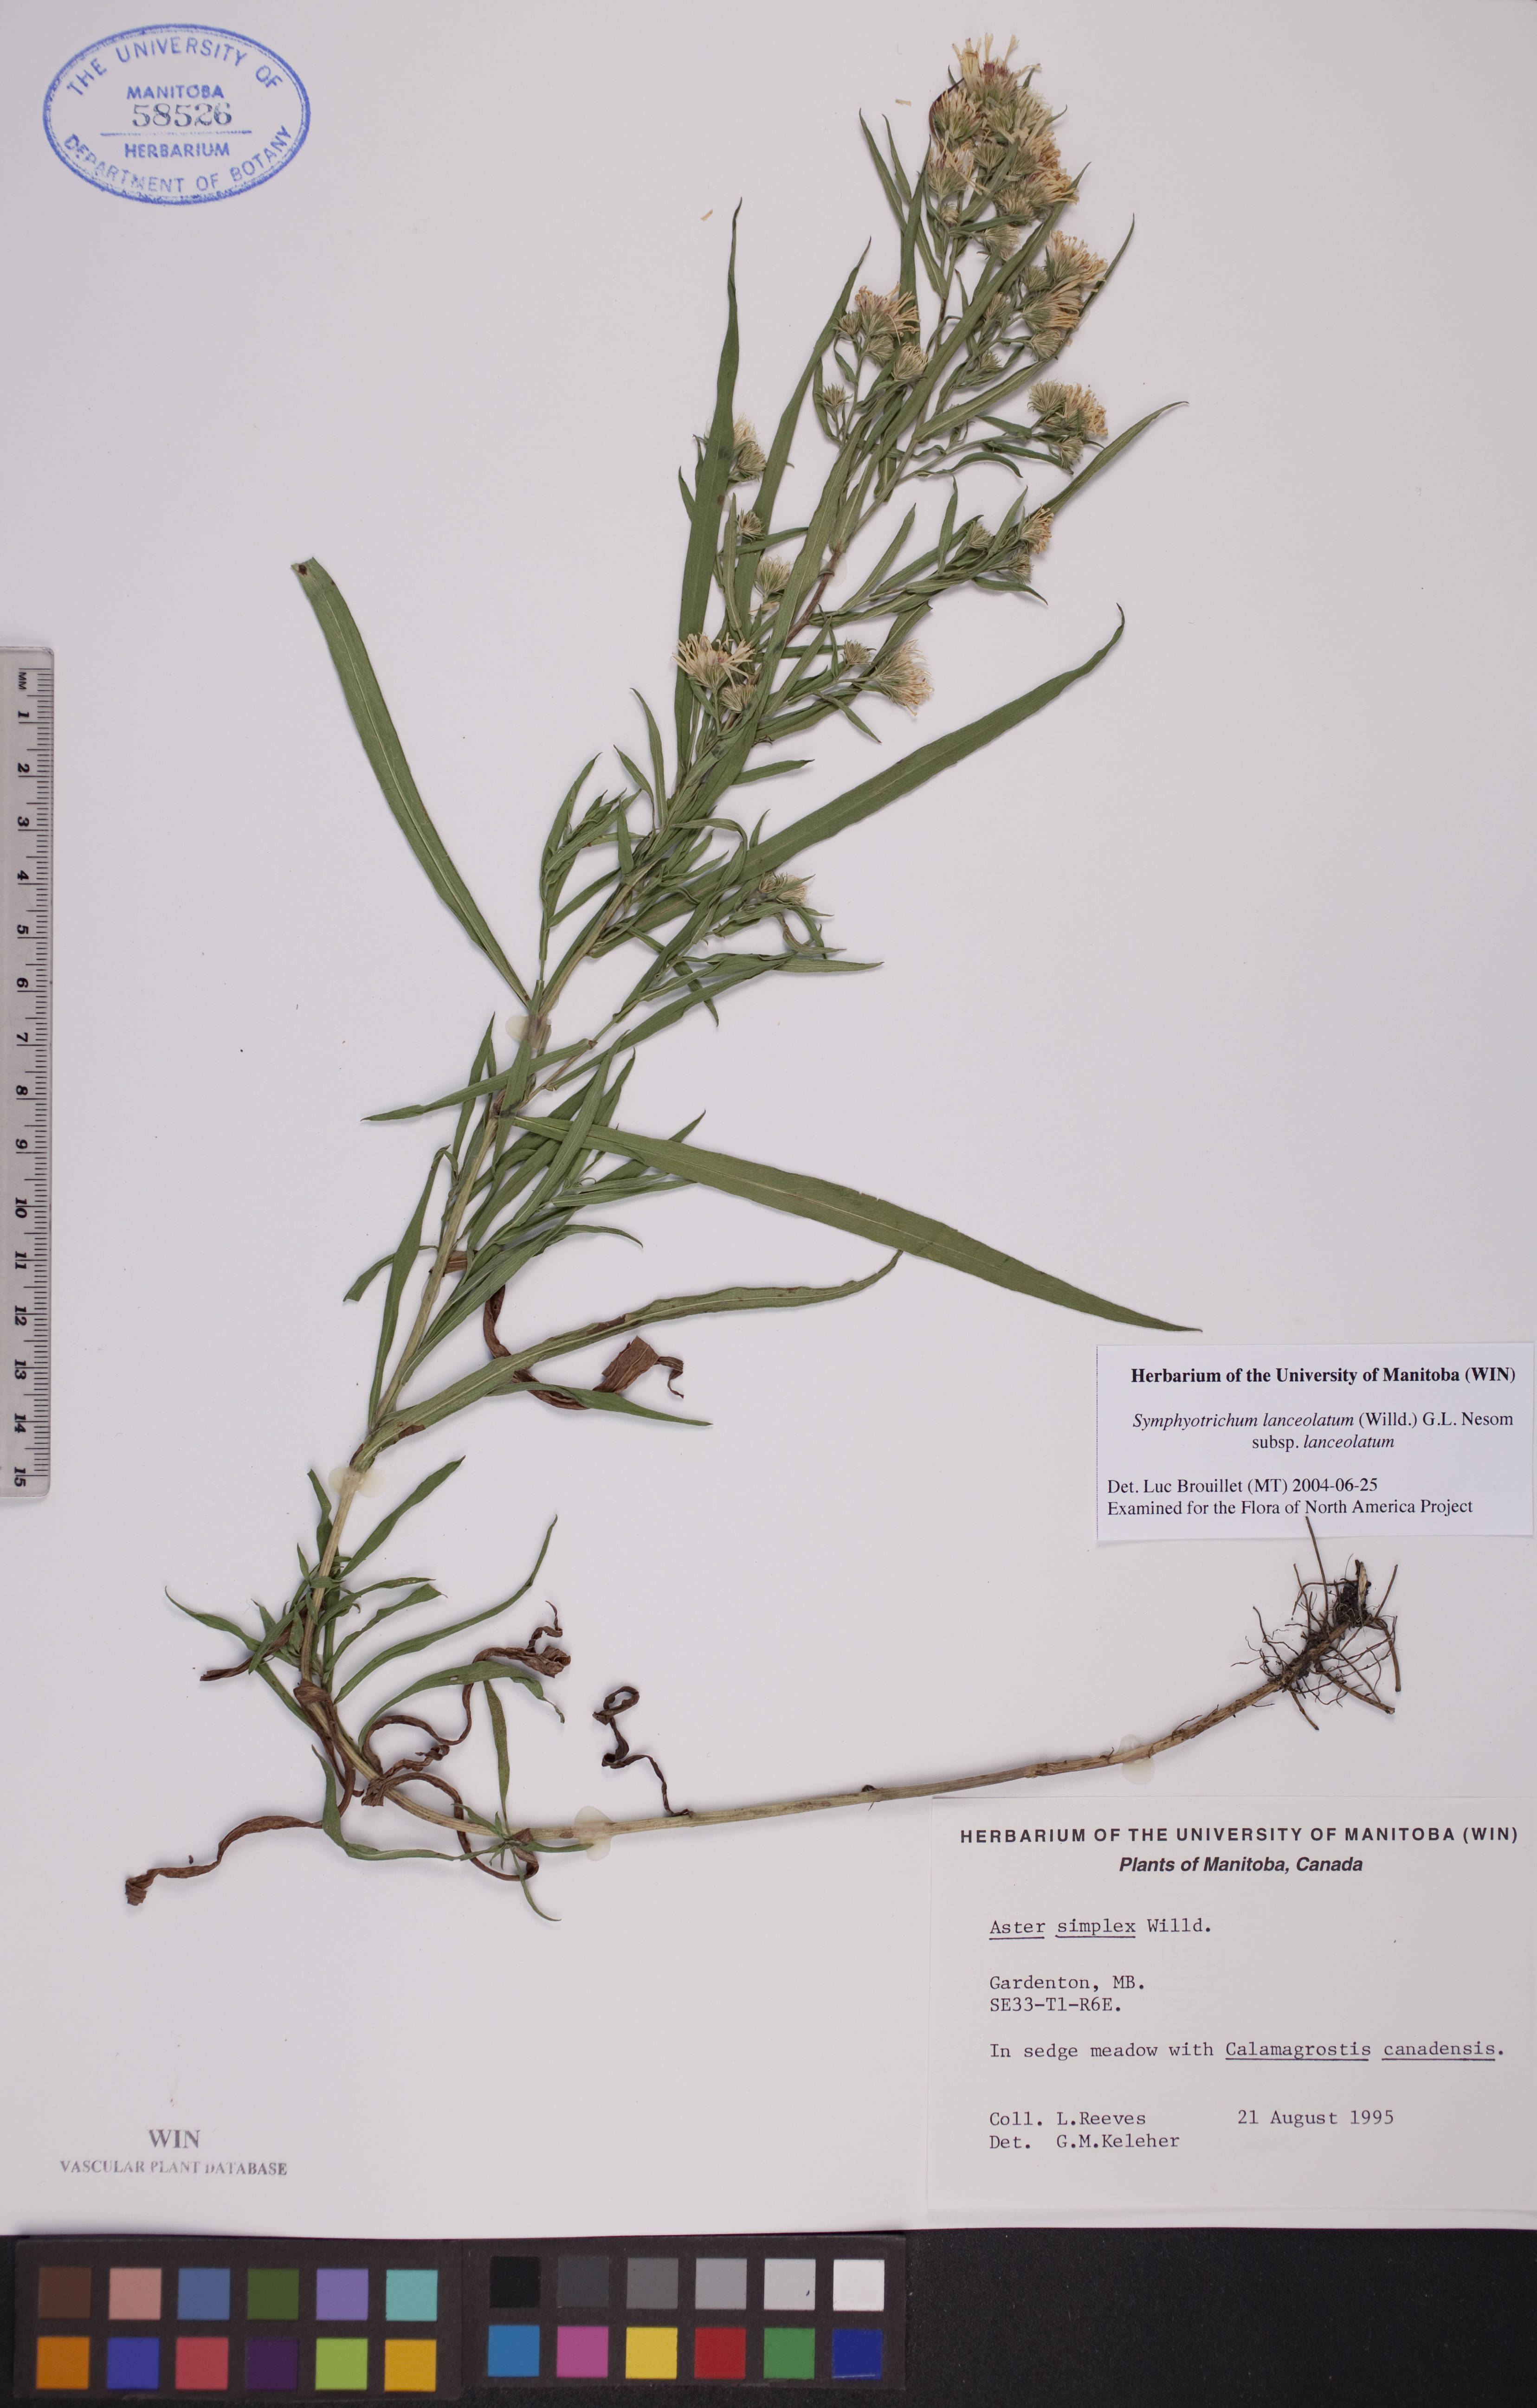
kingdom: Plantae
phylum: Tracheophyta
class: Magnoliopsida
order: Asterales
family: Asteraceae
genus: Symphyotrichum
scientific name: Symphyotrichum lanceolatum
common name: Panicled aster
